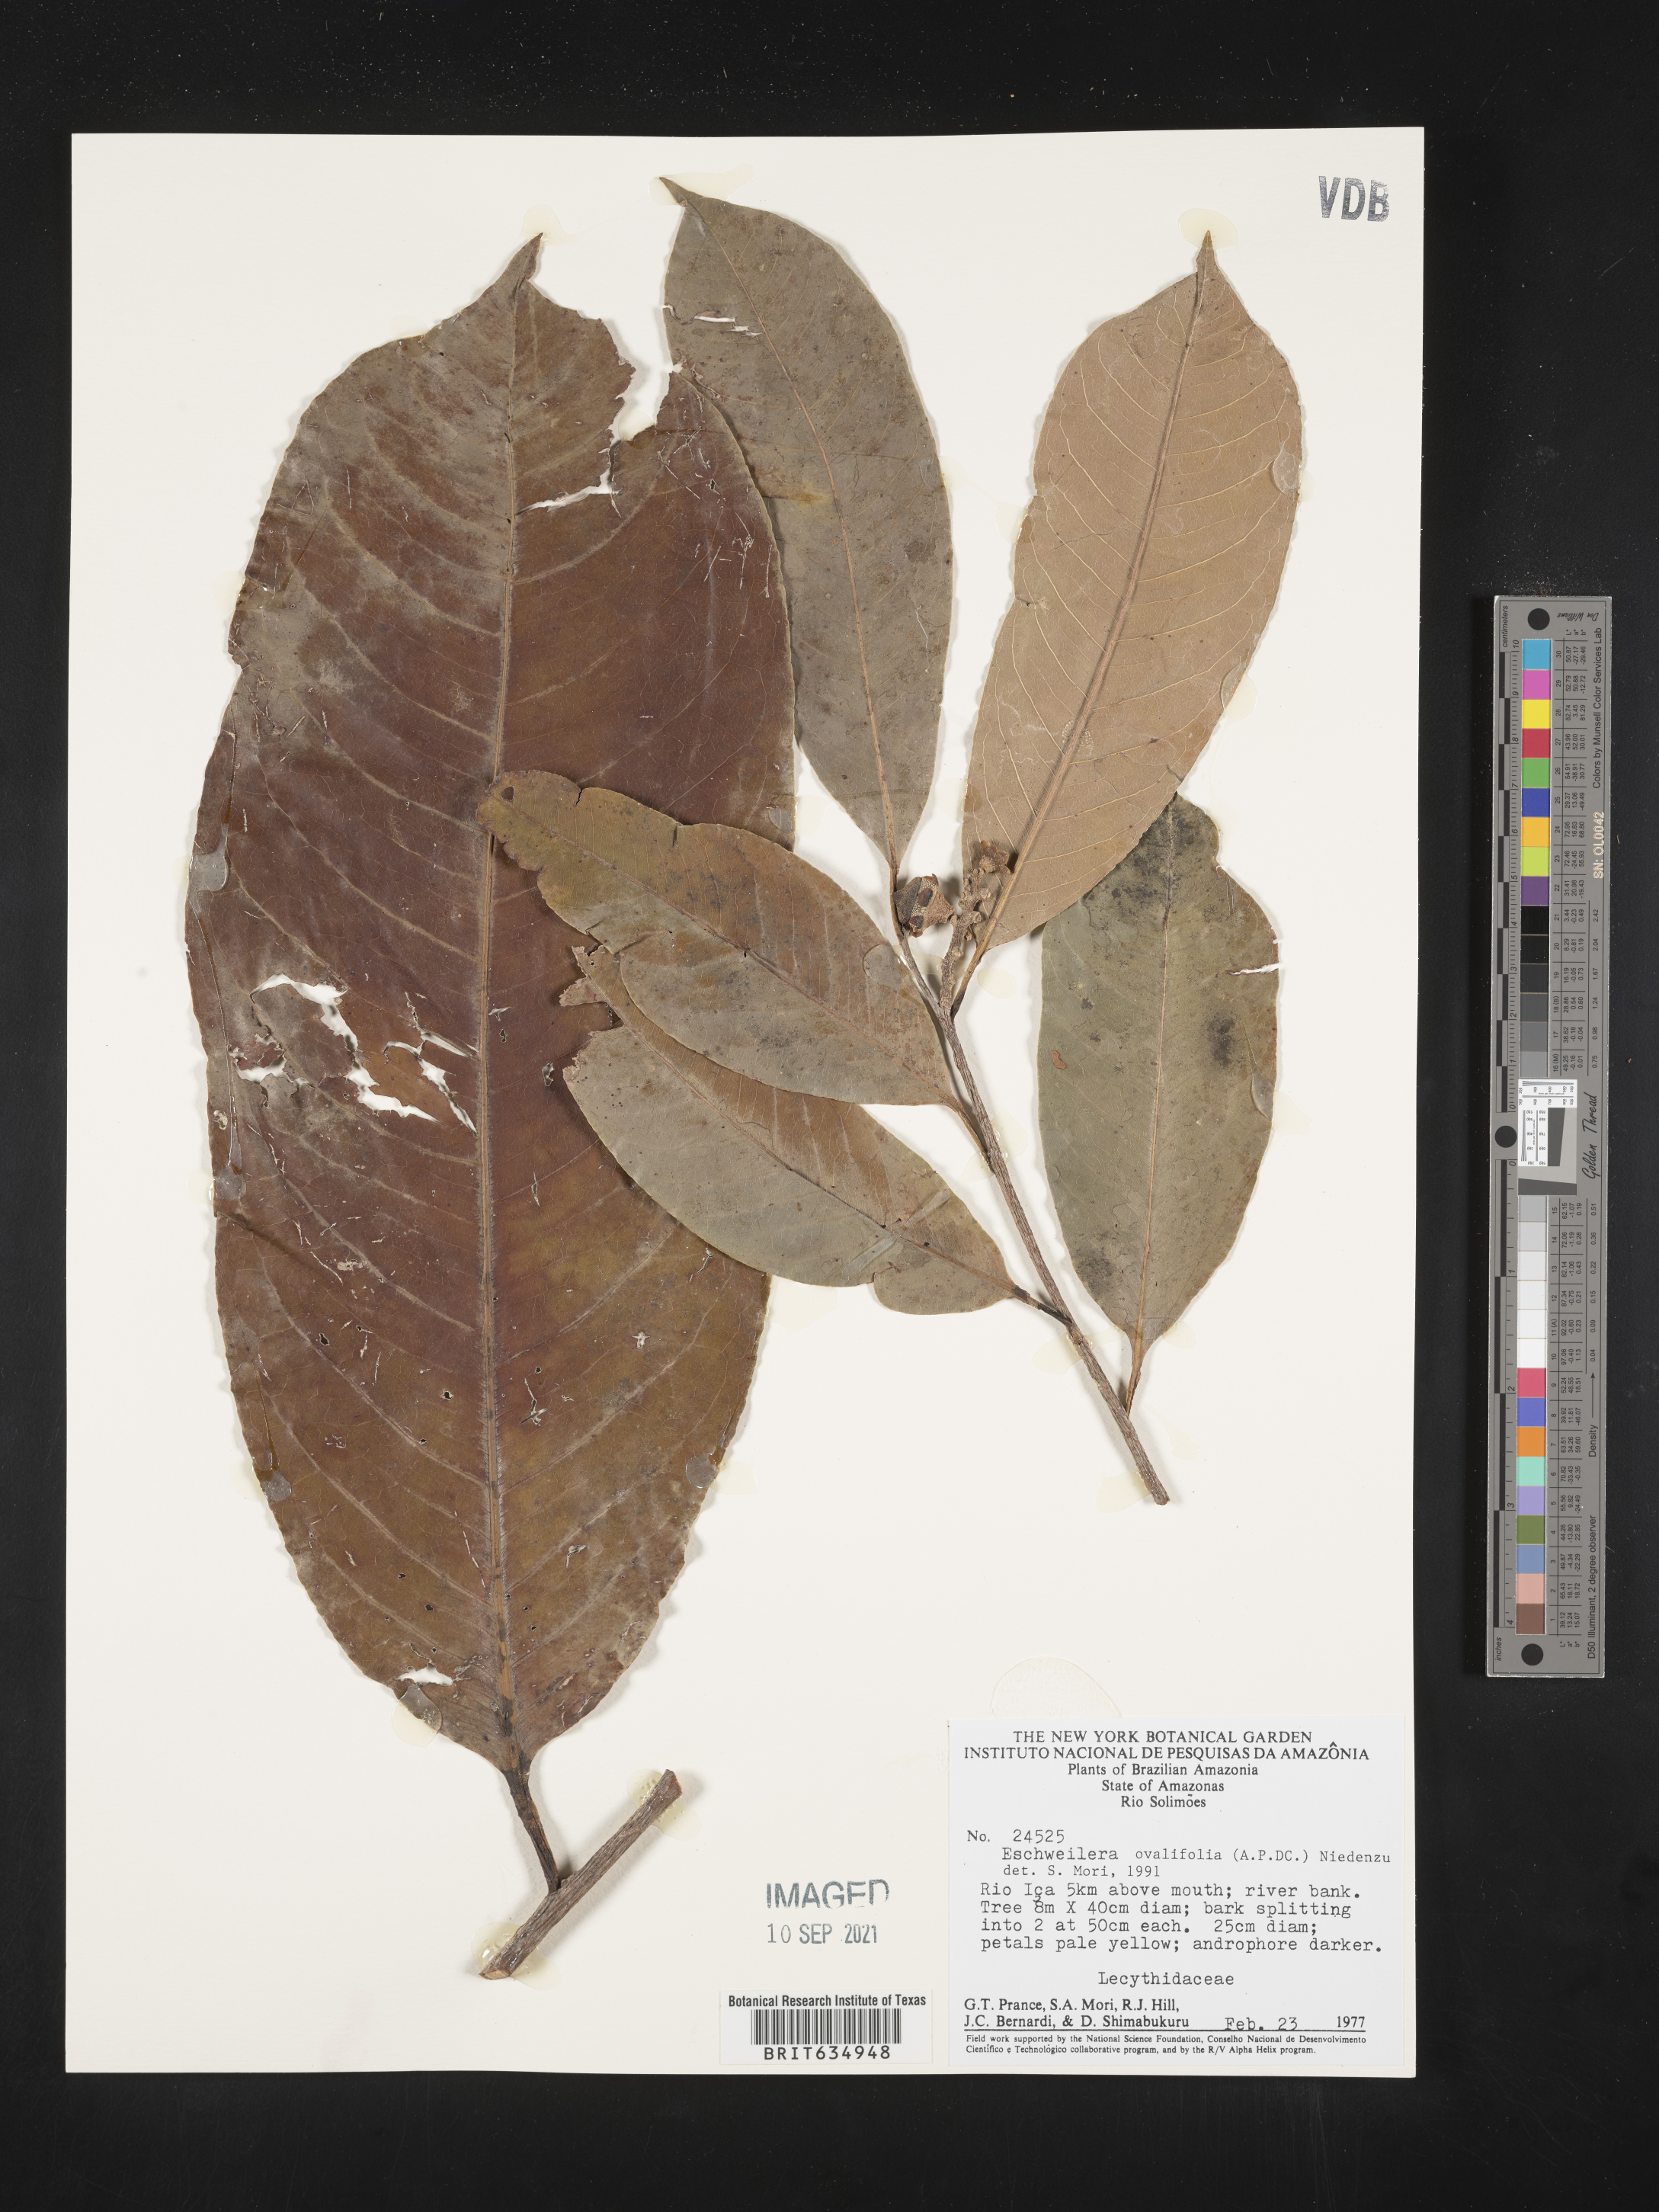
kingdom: Plantae
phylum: Tracheophyta
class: Magnoliopsida
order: Ericales
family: Lecythidaceae
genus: Eschweilera
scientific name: Eschweilera
